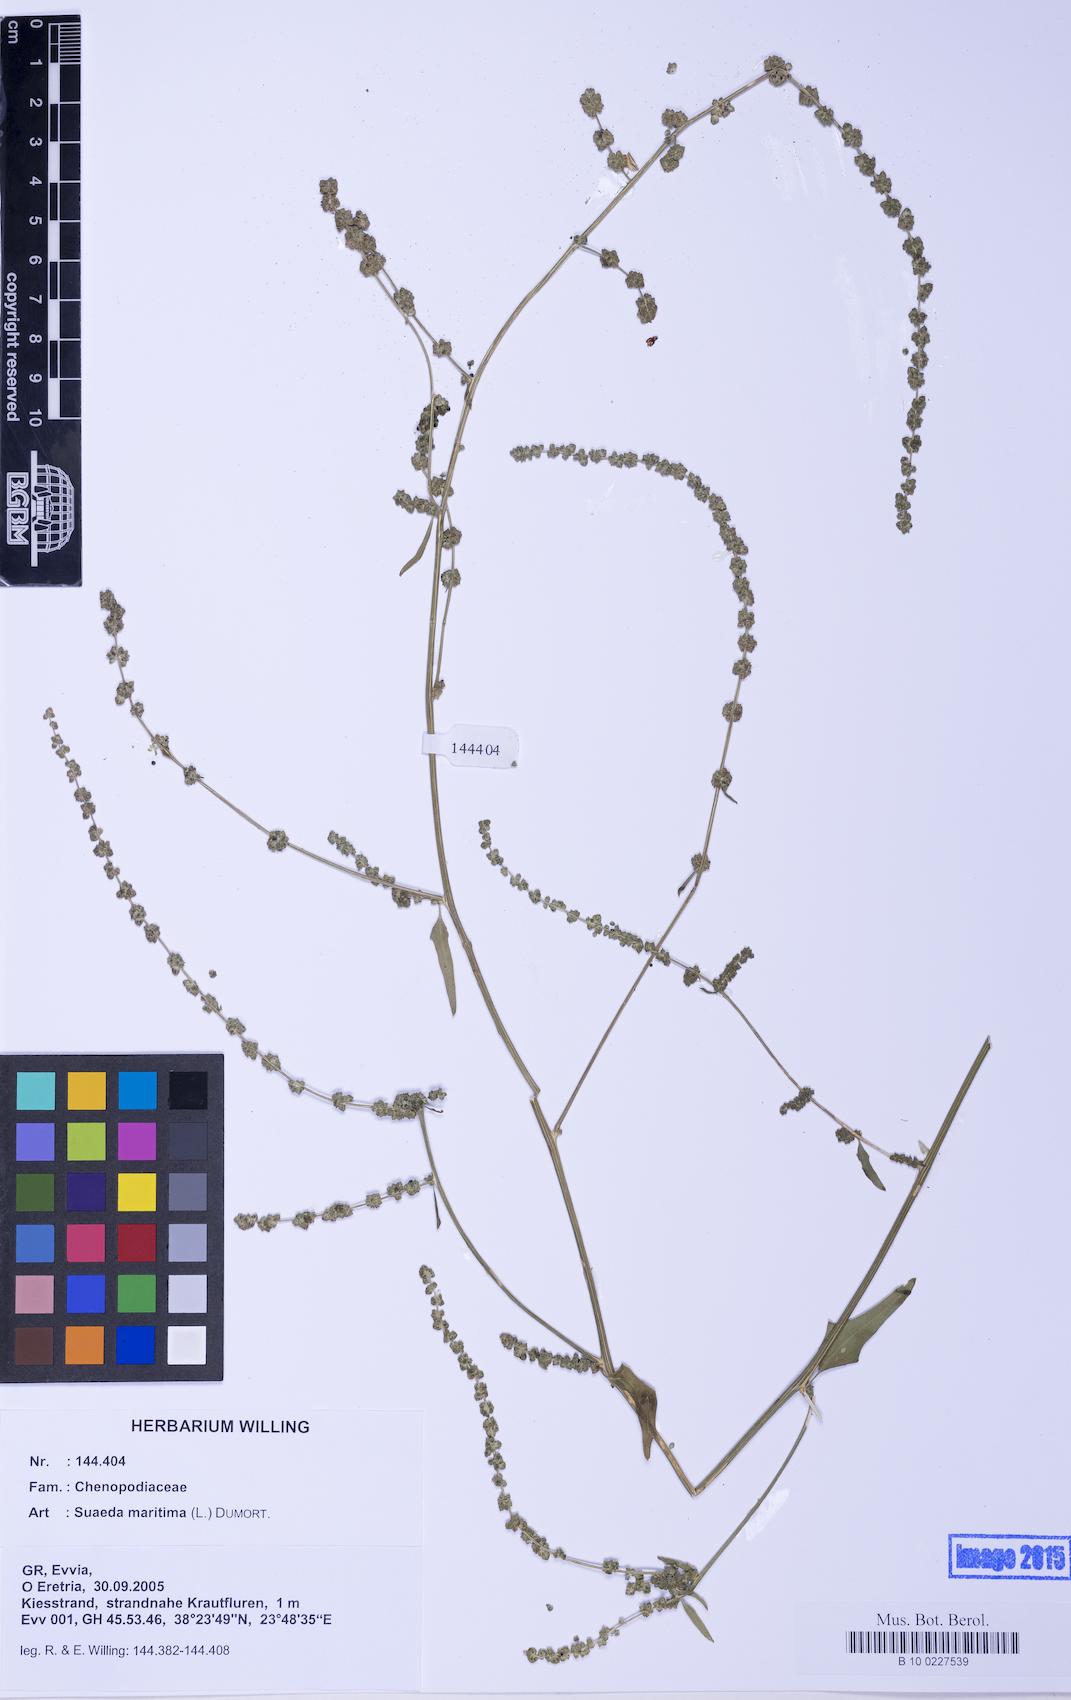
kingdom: Plantae
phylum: Tracheophyta
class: Magnoliopsida
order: Caryophyllales
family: Amaranthaceae
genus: Atriplex
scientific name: Atriplex prostrata
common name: Spear-leaved orache
